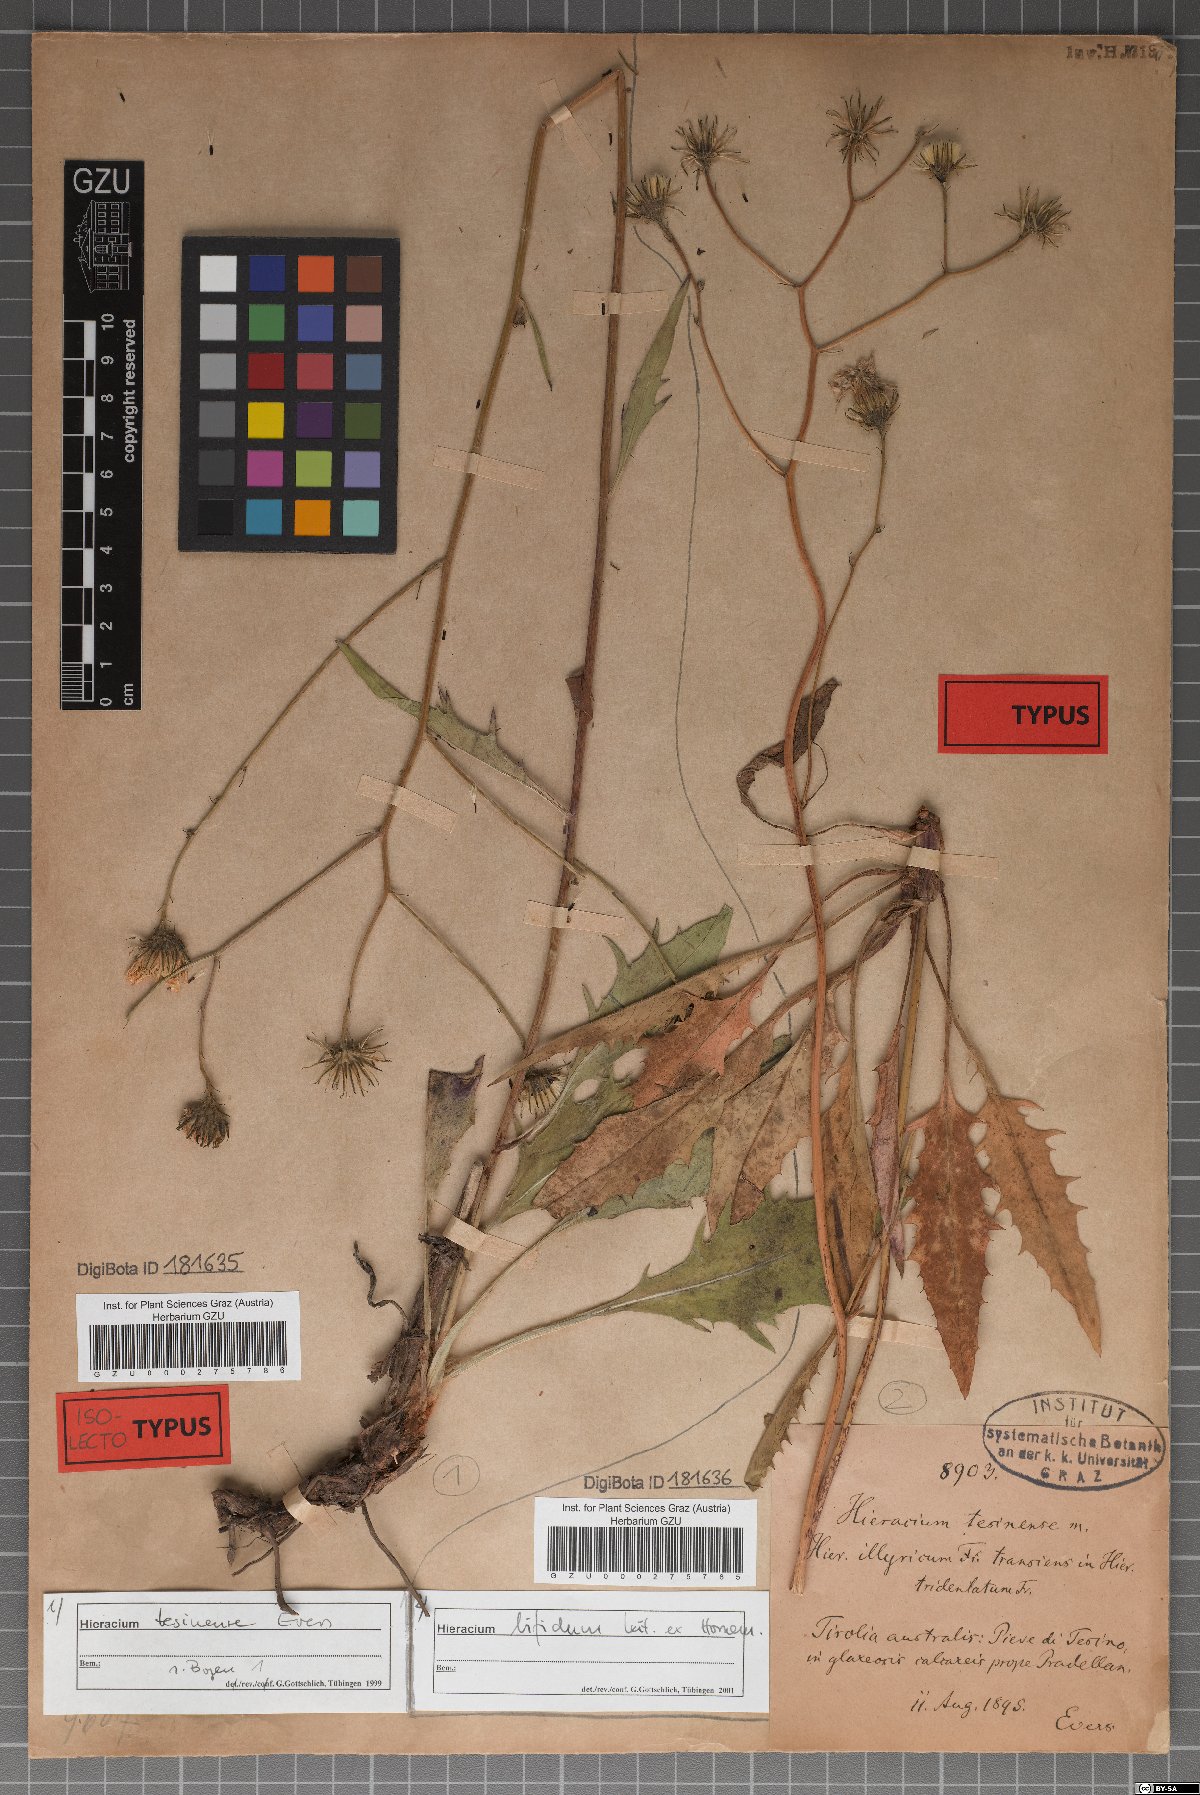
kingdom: Plantae
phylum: Tracheophyta
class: Magnoliopsida
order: Asterales
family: Asteraceae
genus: Hieracium
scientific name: Hieracium calcareum
